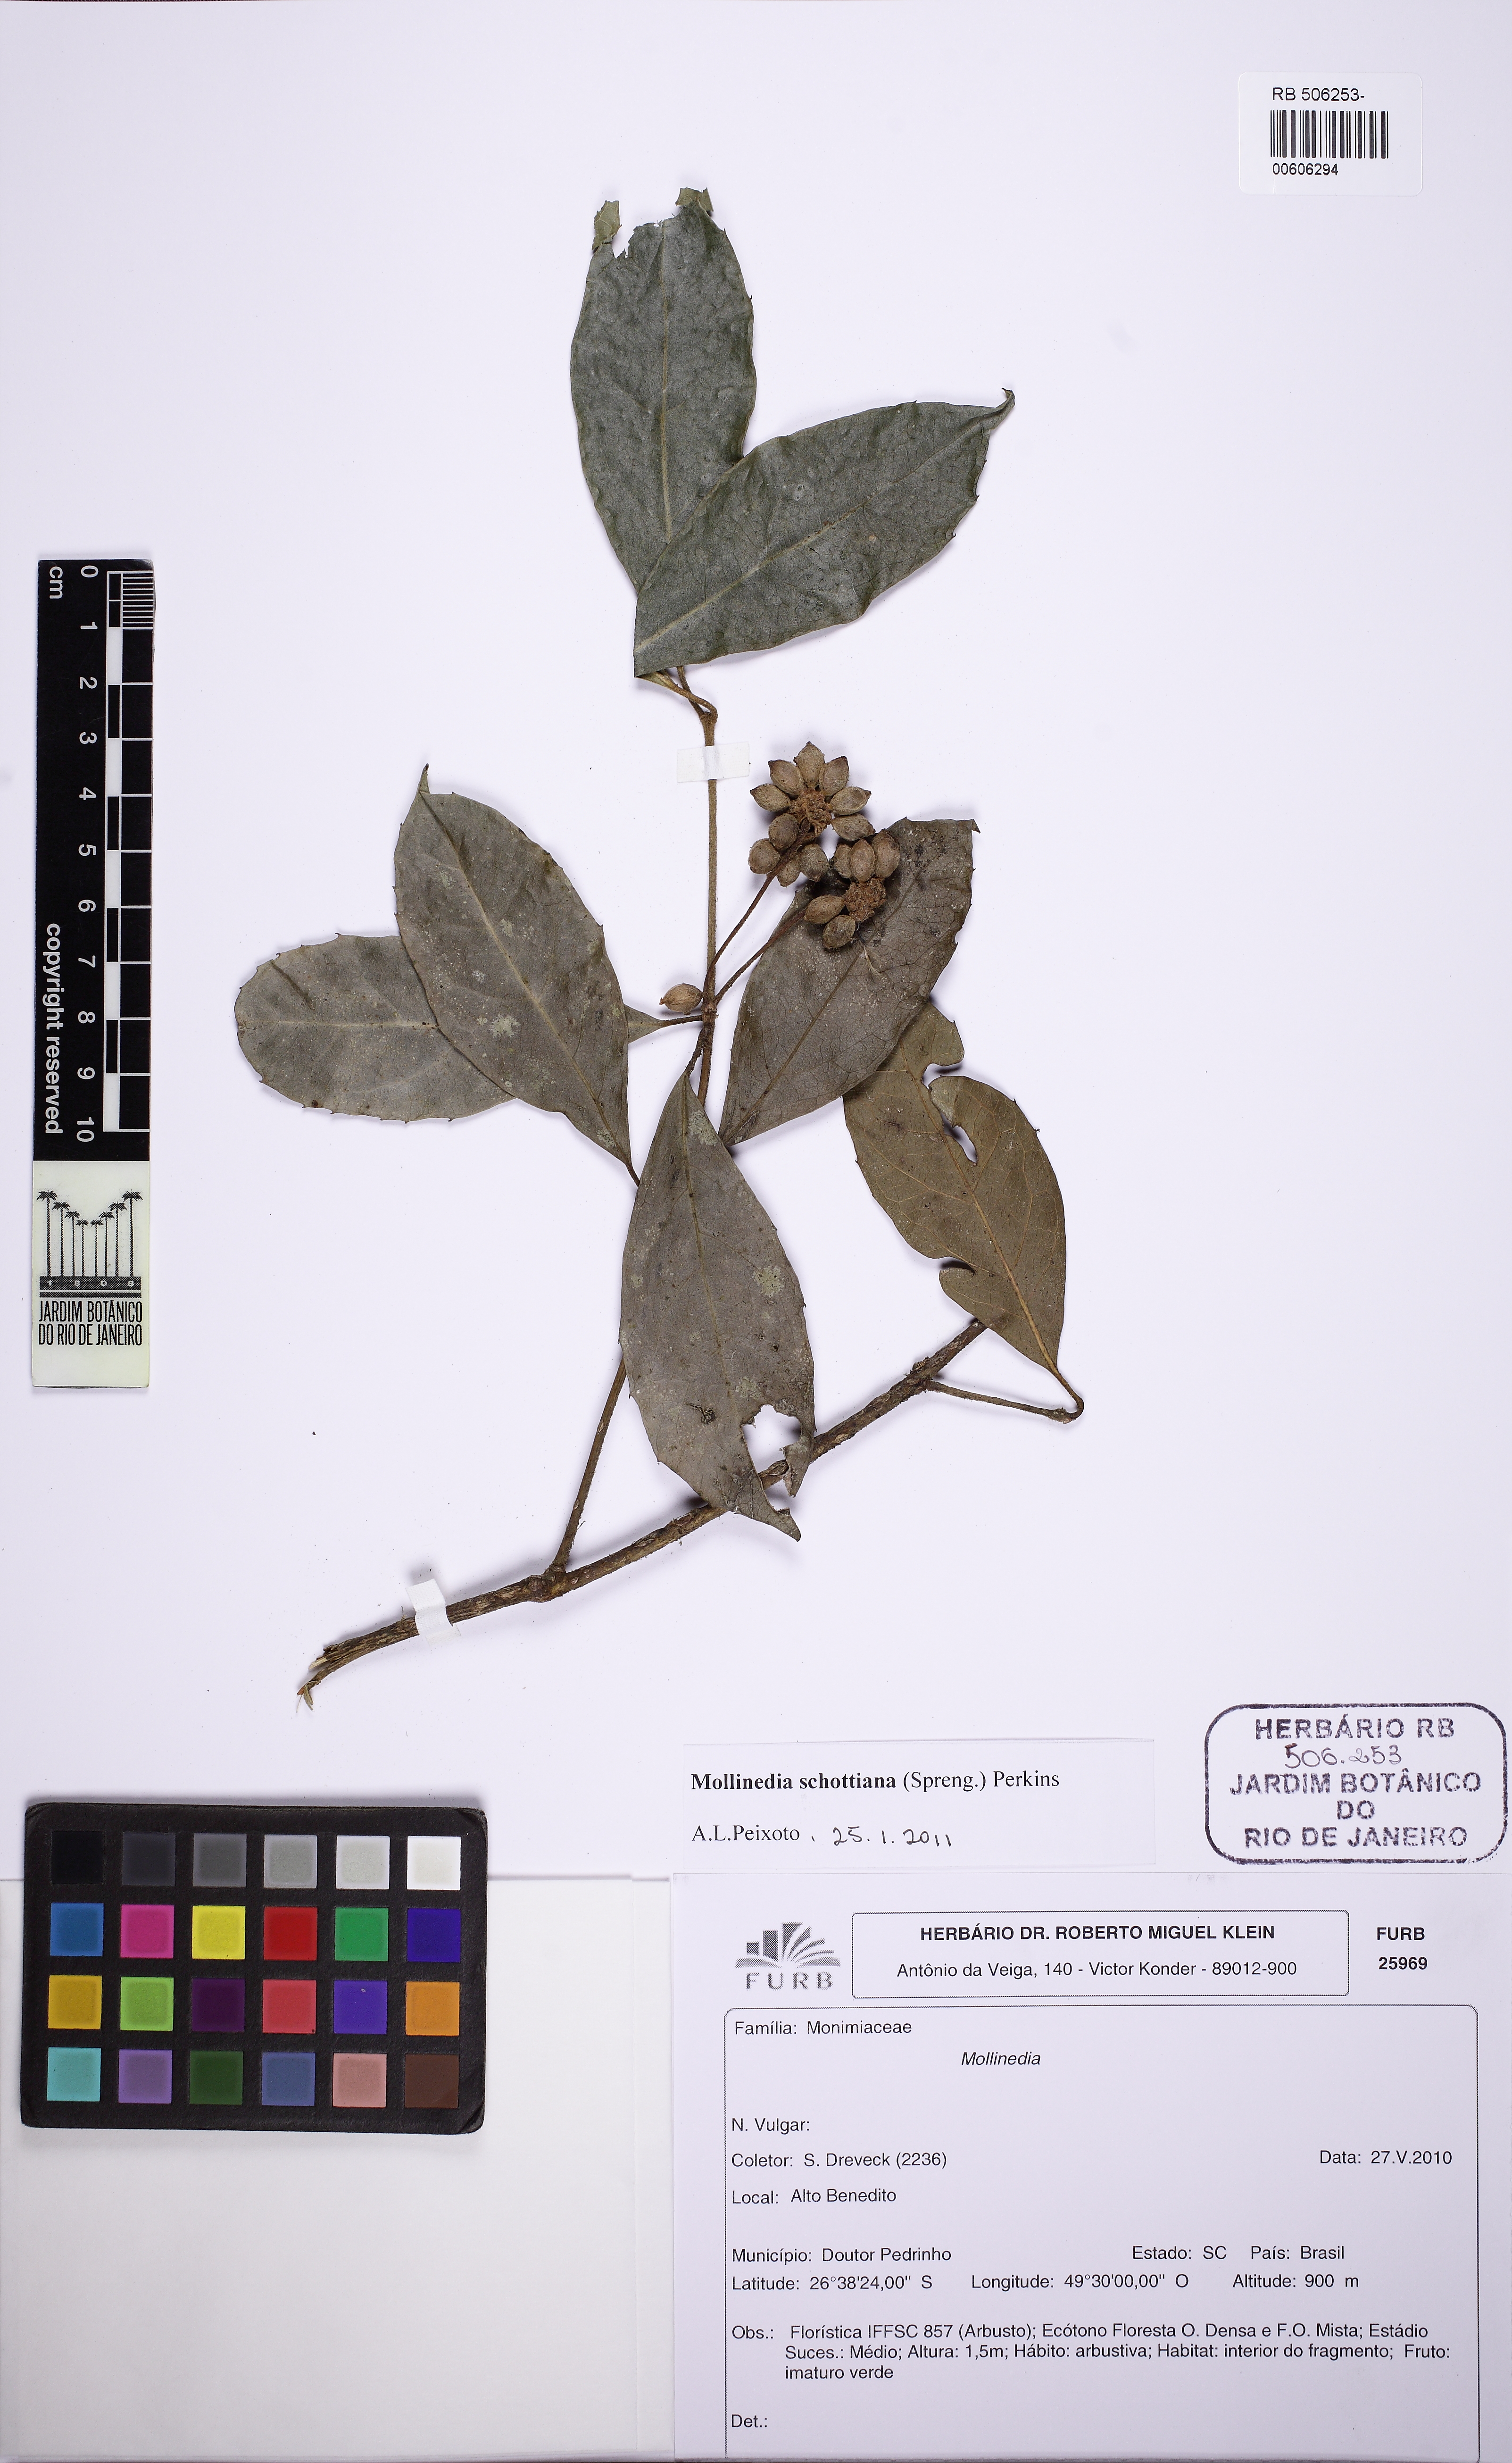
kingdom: Plantae
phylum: Tracheophyta
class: Magnoliopsida
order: Laurales
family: Monimiaceae
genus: Mollinedia
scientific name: Mollinedia umbellata
